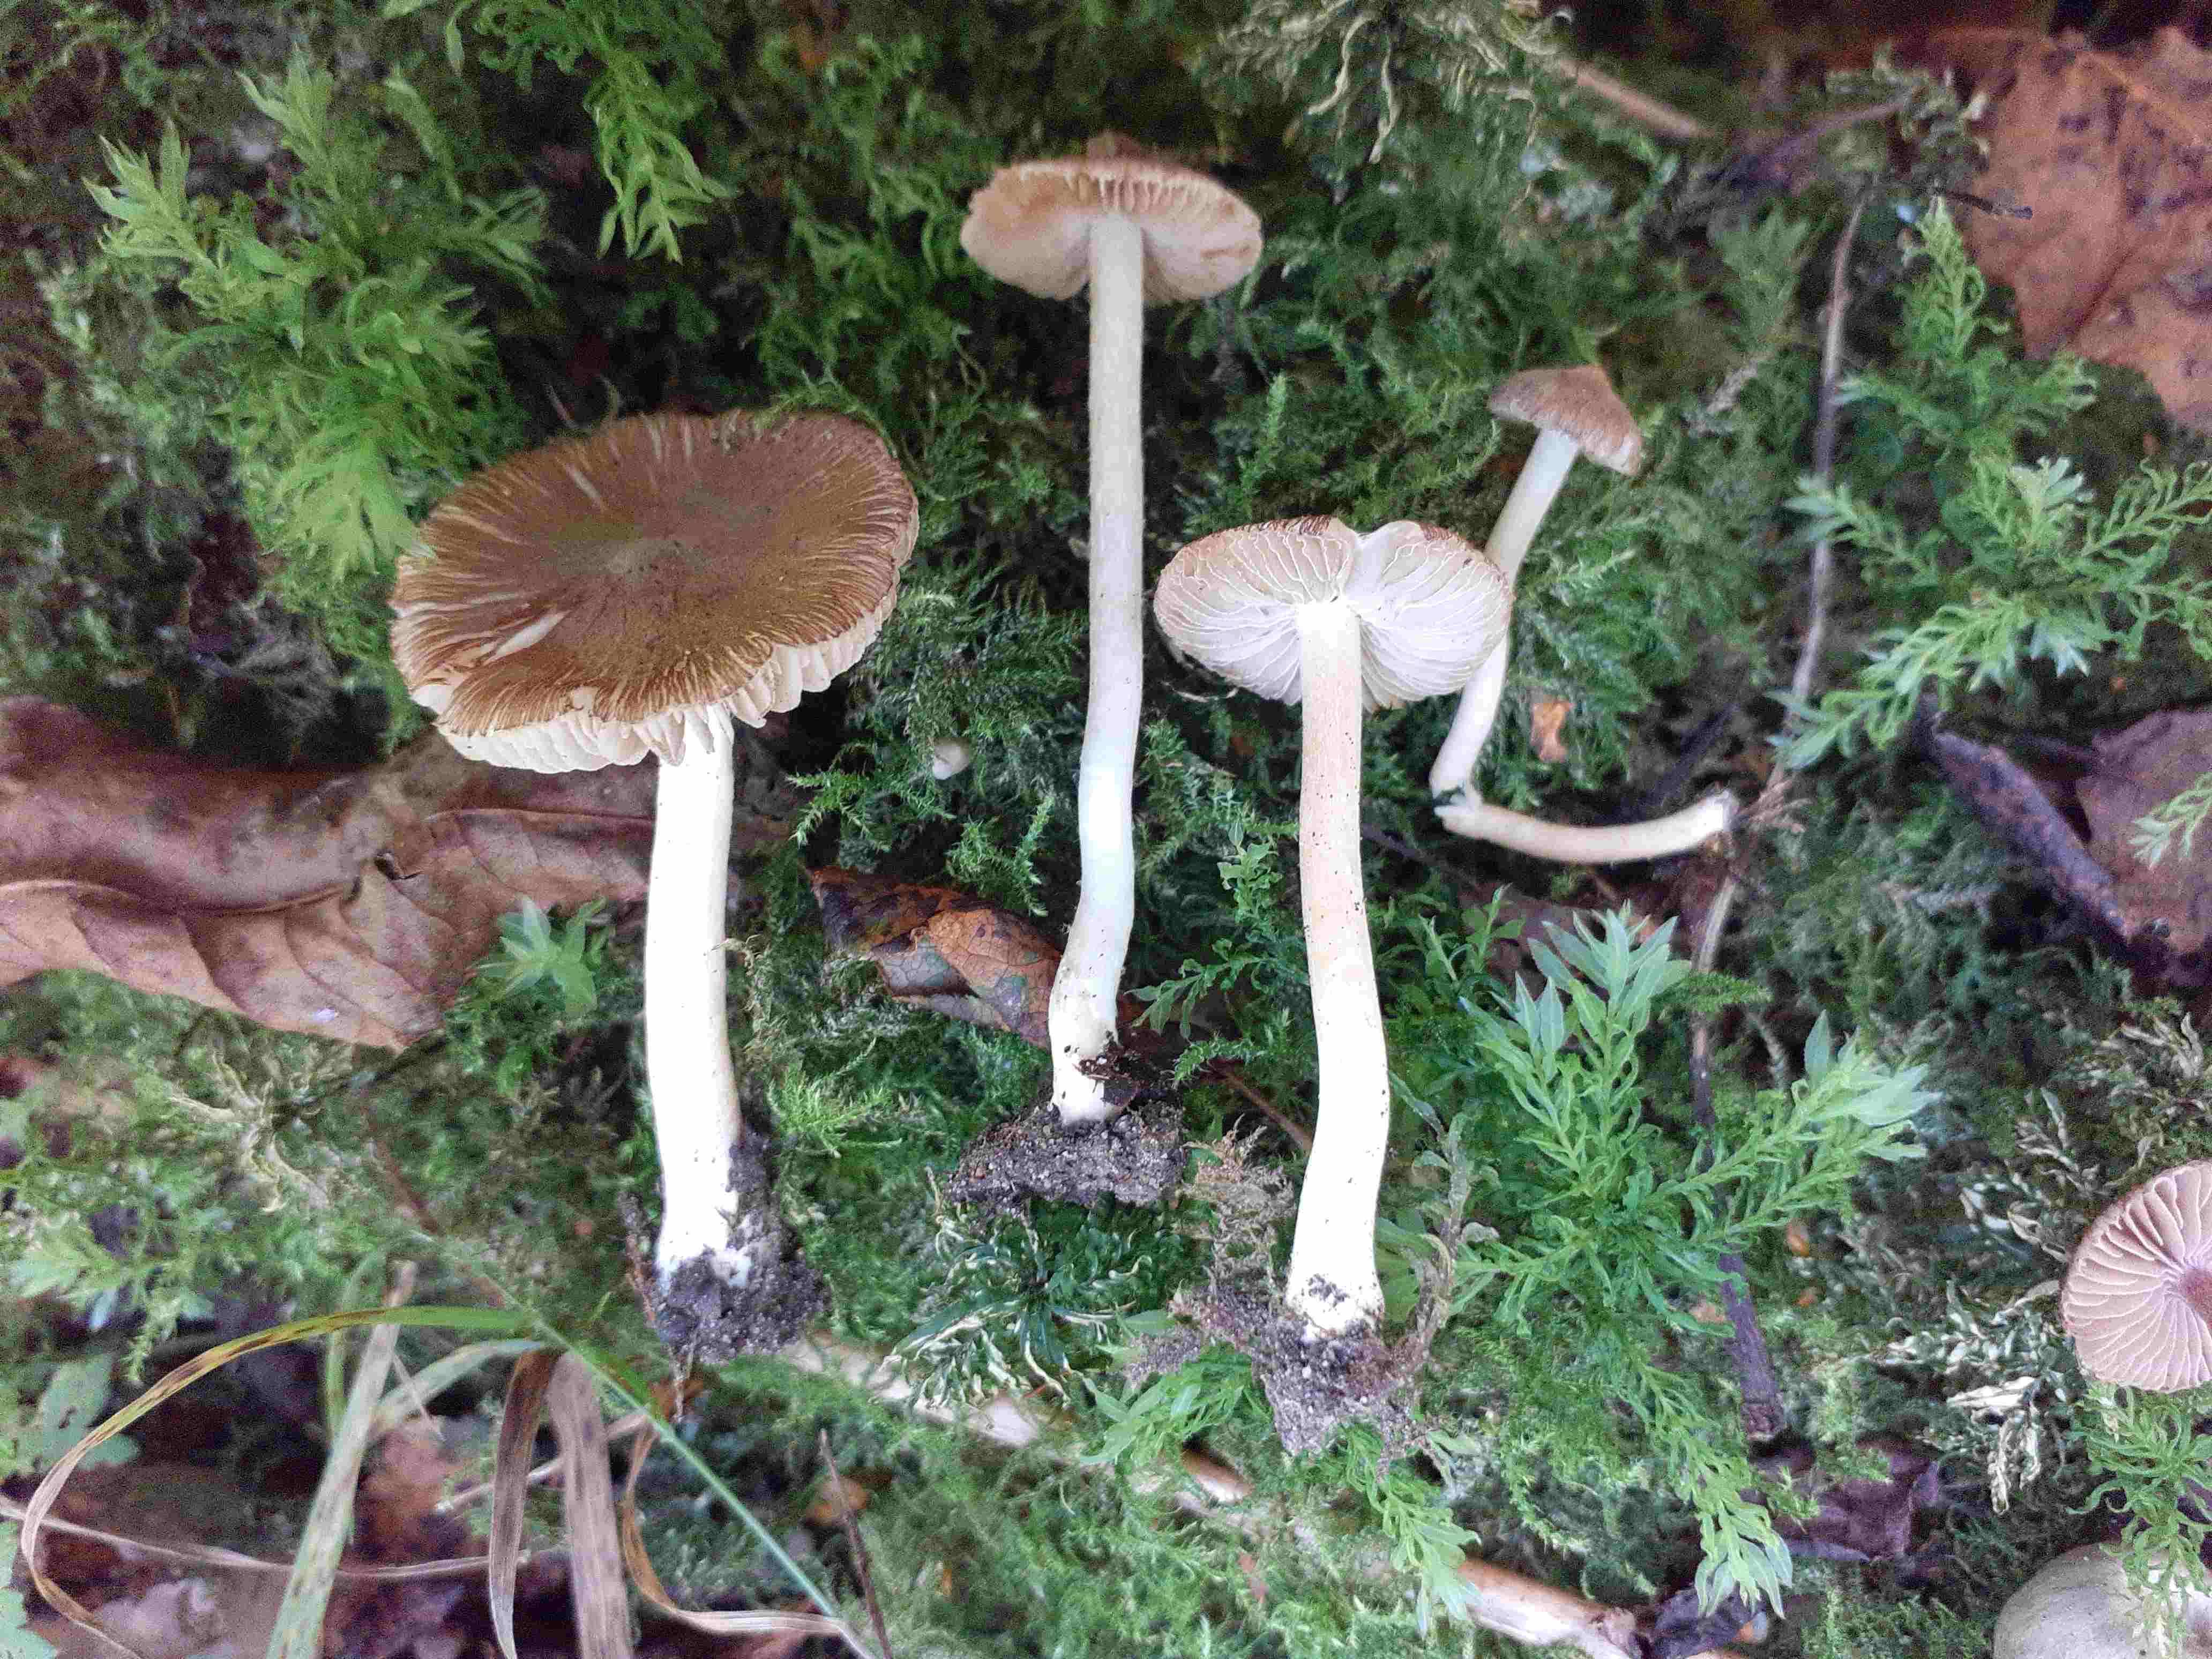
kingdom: Fungi
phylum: Basidiomycota
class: Agaricomycetes
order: Agaricales
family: Inocybaceae
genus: Inocybe
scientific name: Inocybe
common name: trævlhat
